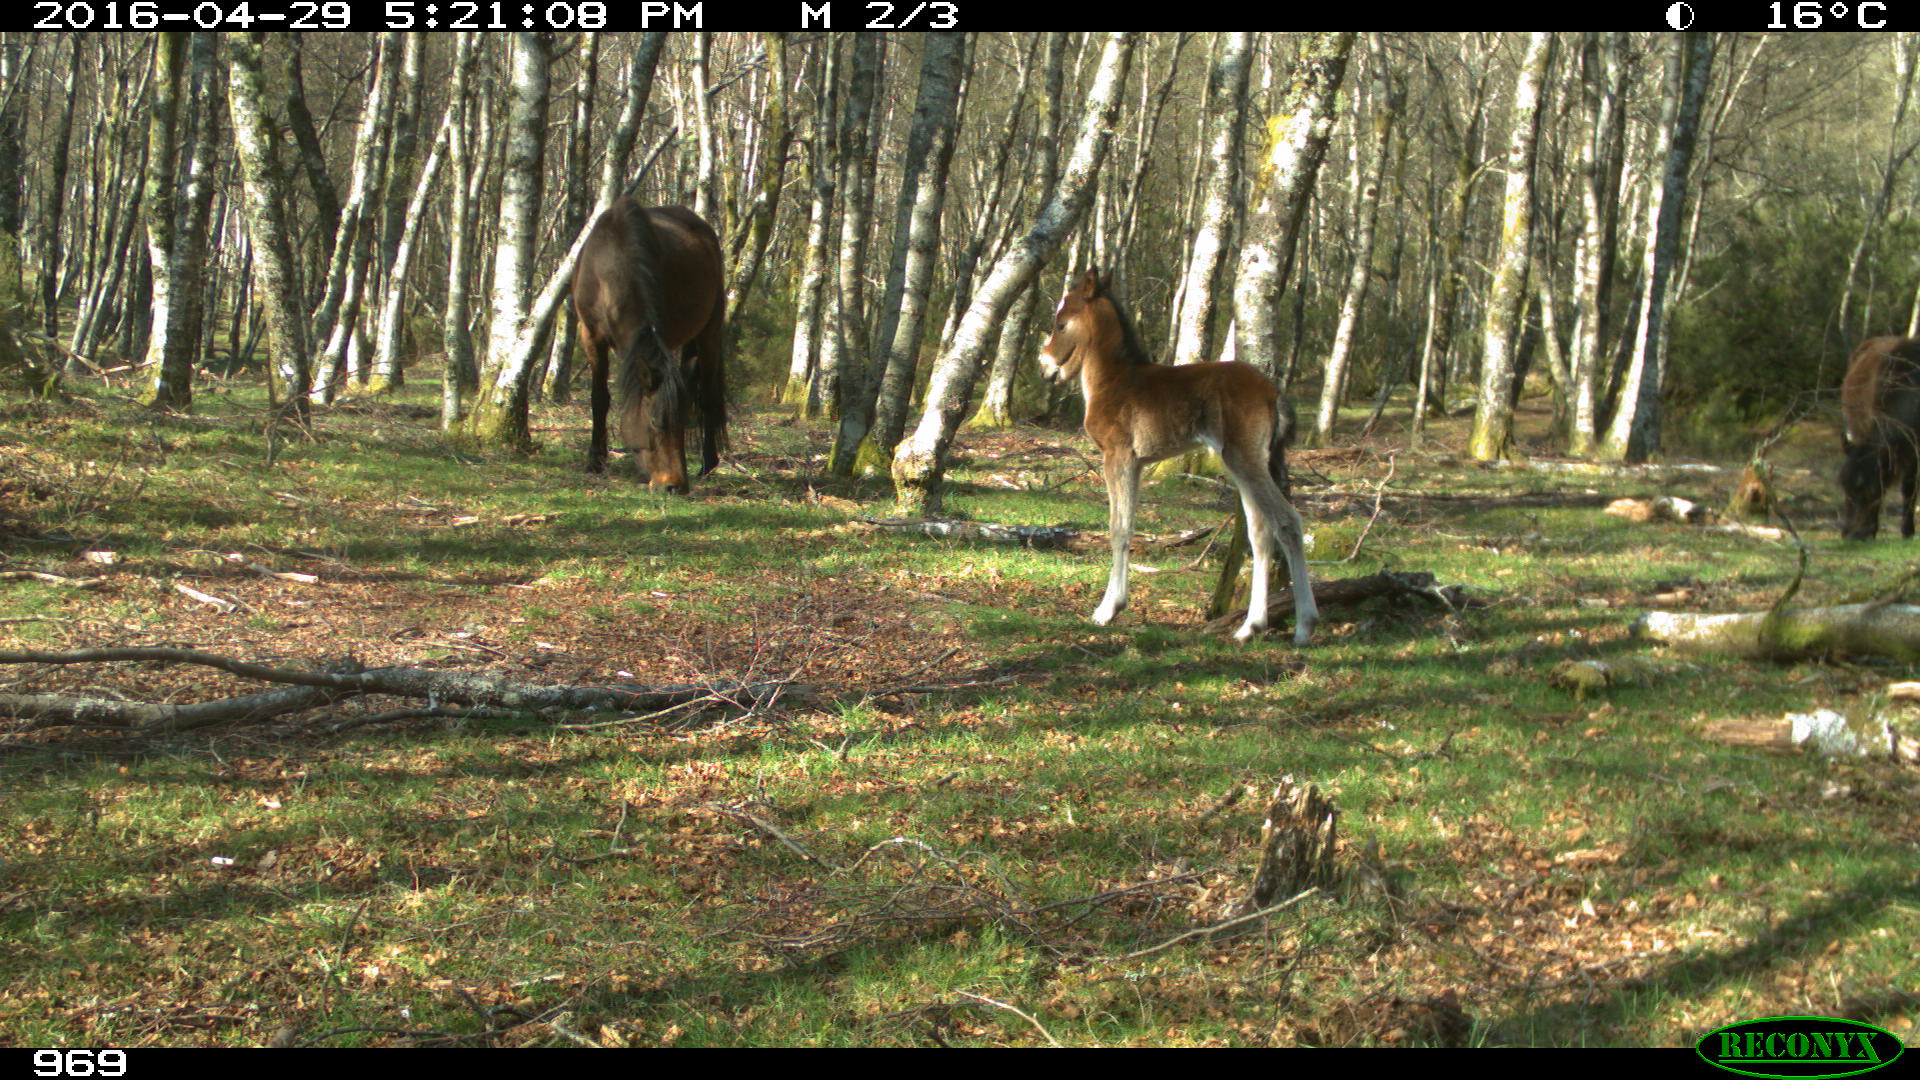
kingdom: Animalia
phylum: Chordata
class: Mammalia
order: Perissodactyla
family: Equidae
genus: Equus
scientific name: Equus caballus
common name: Horse
